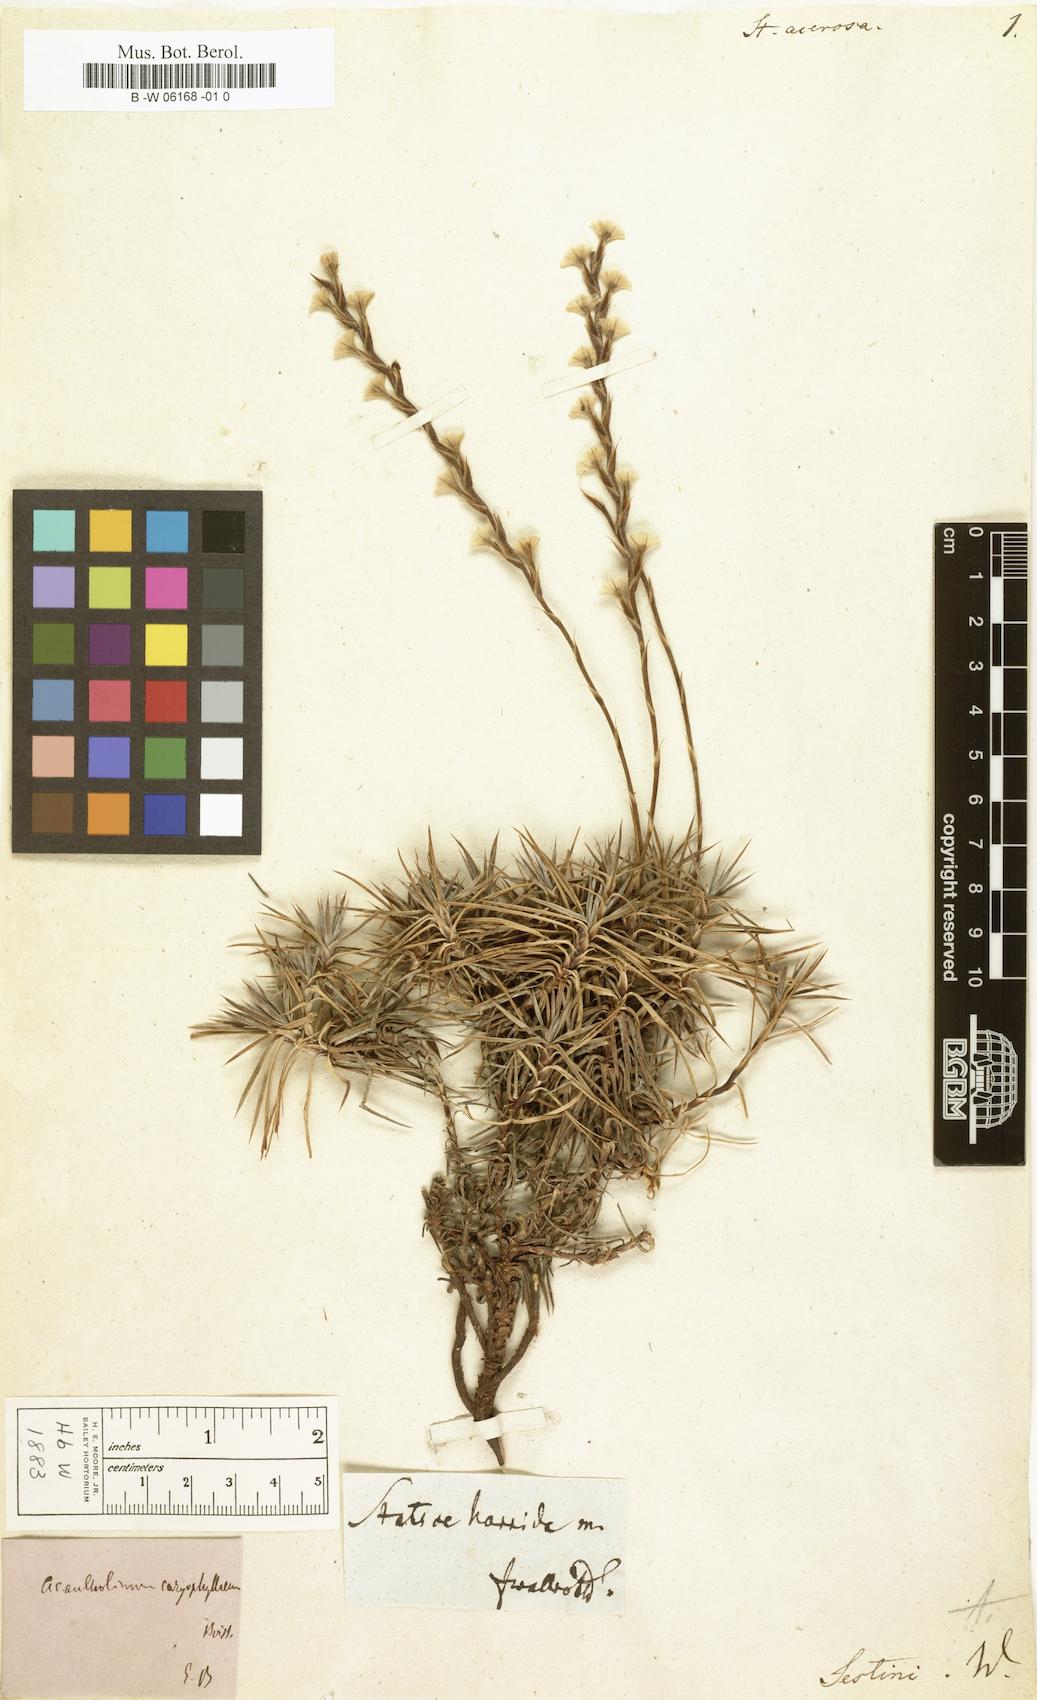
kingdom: Plantae
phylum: Tracheophyta
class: Magnoliopsida
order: Caryophyllales
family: Plumbaginaceae
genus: Acantholimon
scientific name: Acantholimon
